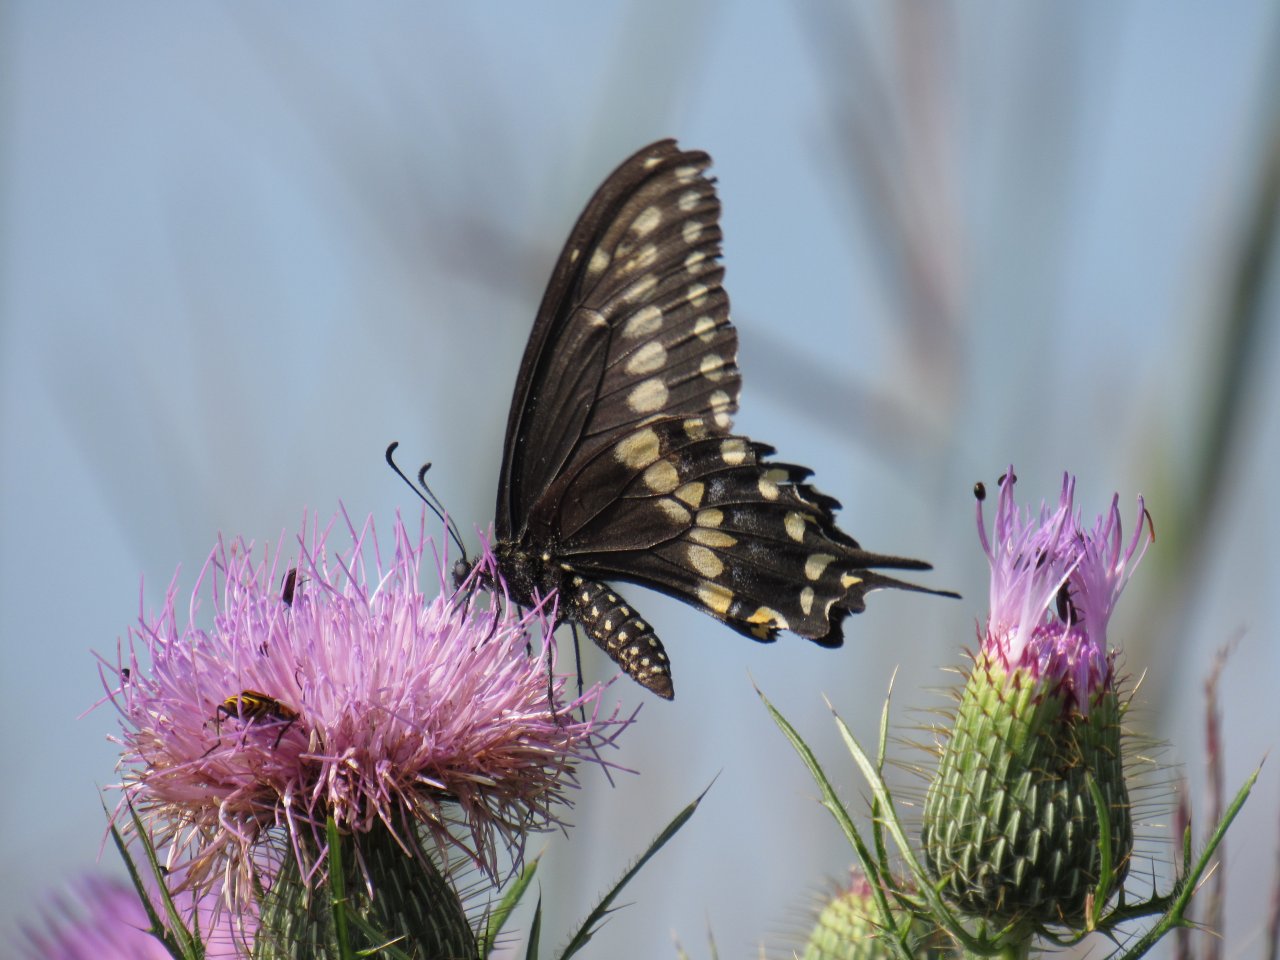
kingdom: Animalia
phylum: Arthropoda
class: Insecta
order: Lepidoptera
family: Papilionidae
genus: Papilio
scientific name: Papilio polyxenes
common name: Black Swallowtail
